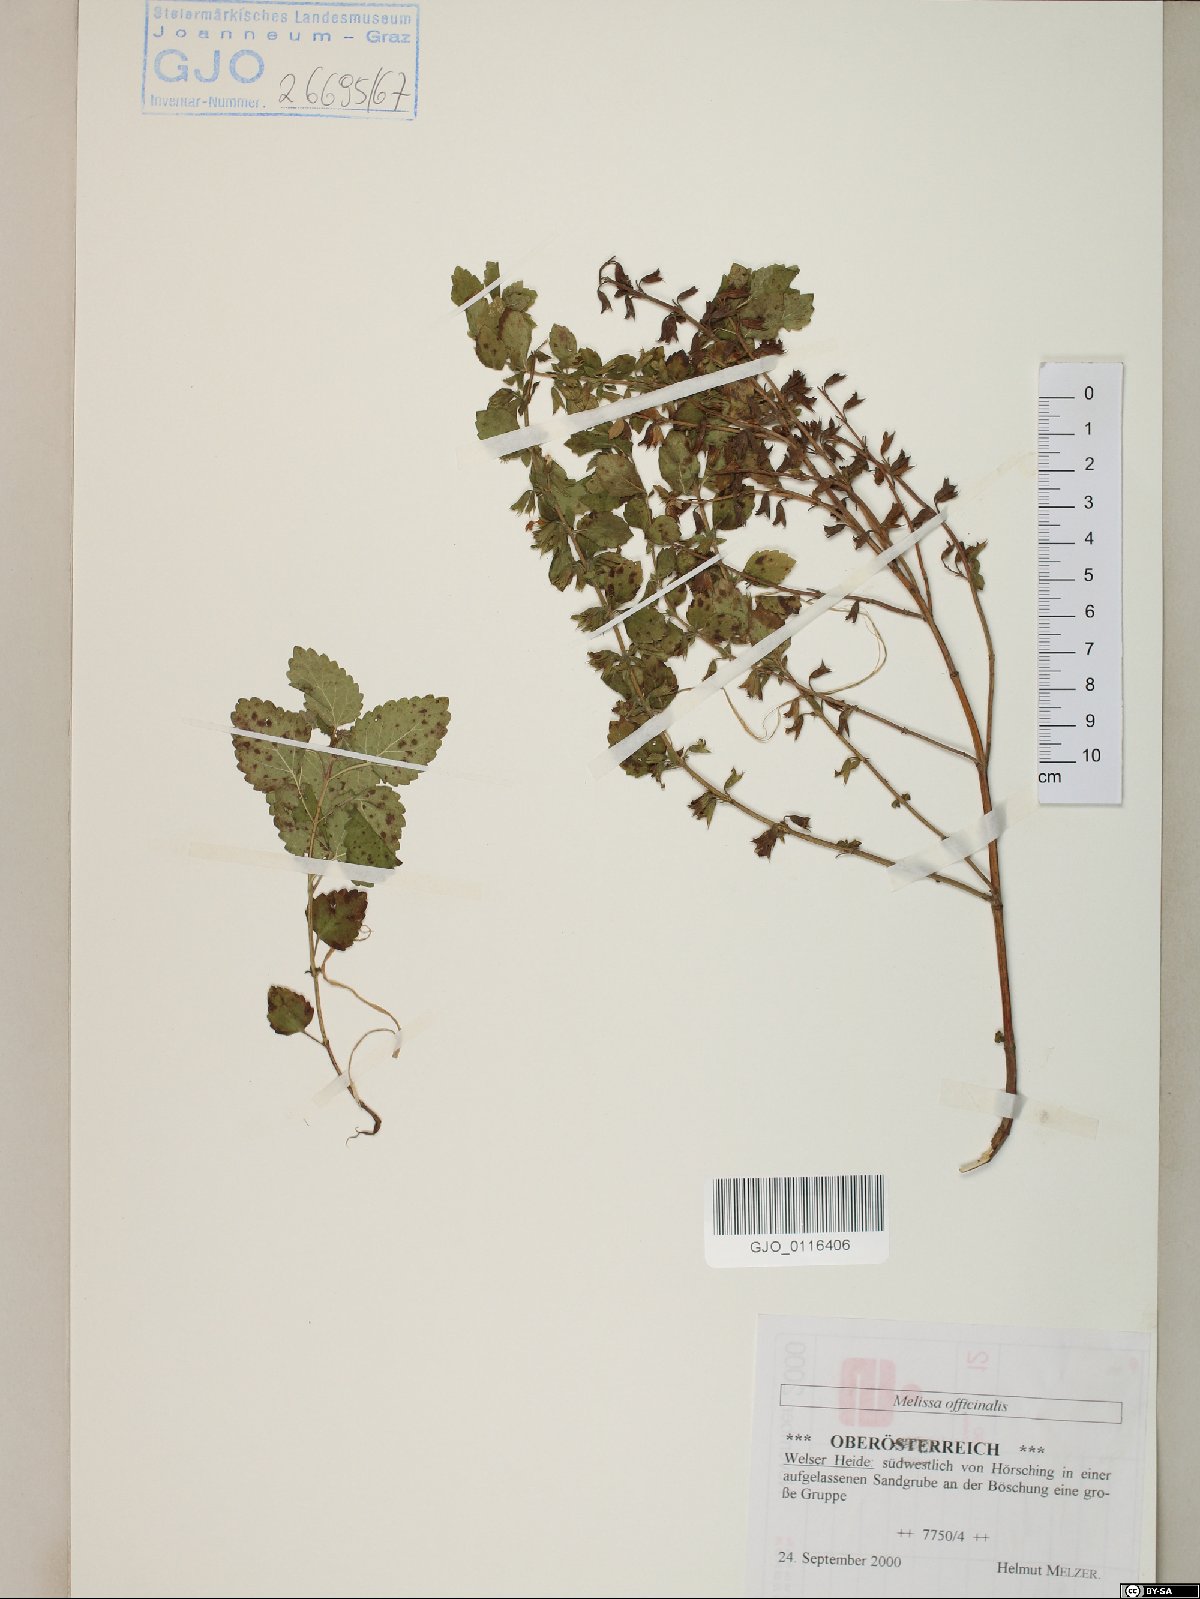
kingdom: Plantae
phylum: Tracheophyta
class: Magnoliopsida
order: Lamiales
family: Lamiaceae
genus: Melissa
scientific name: Melissa officinalis
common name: Balm
